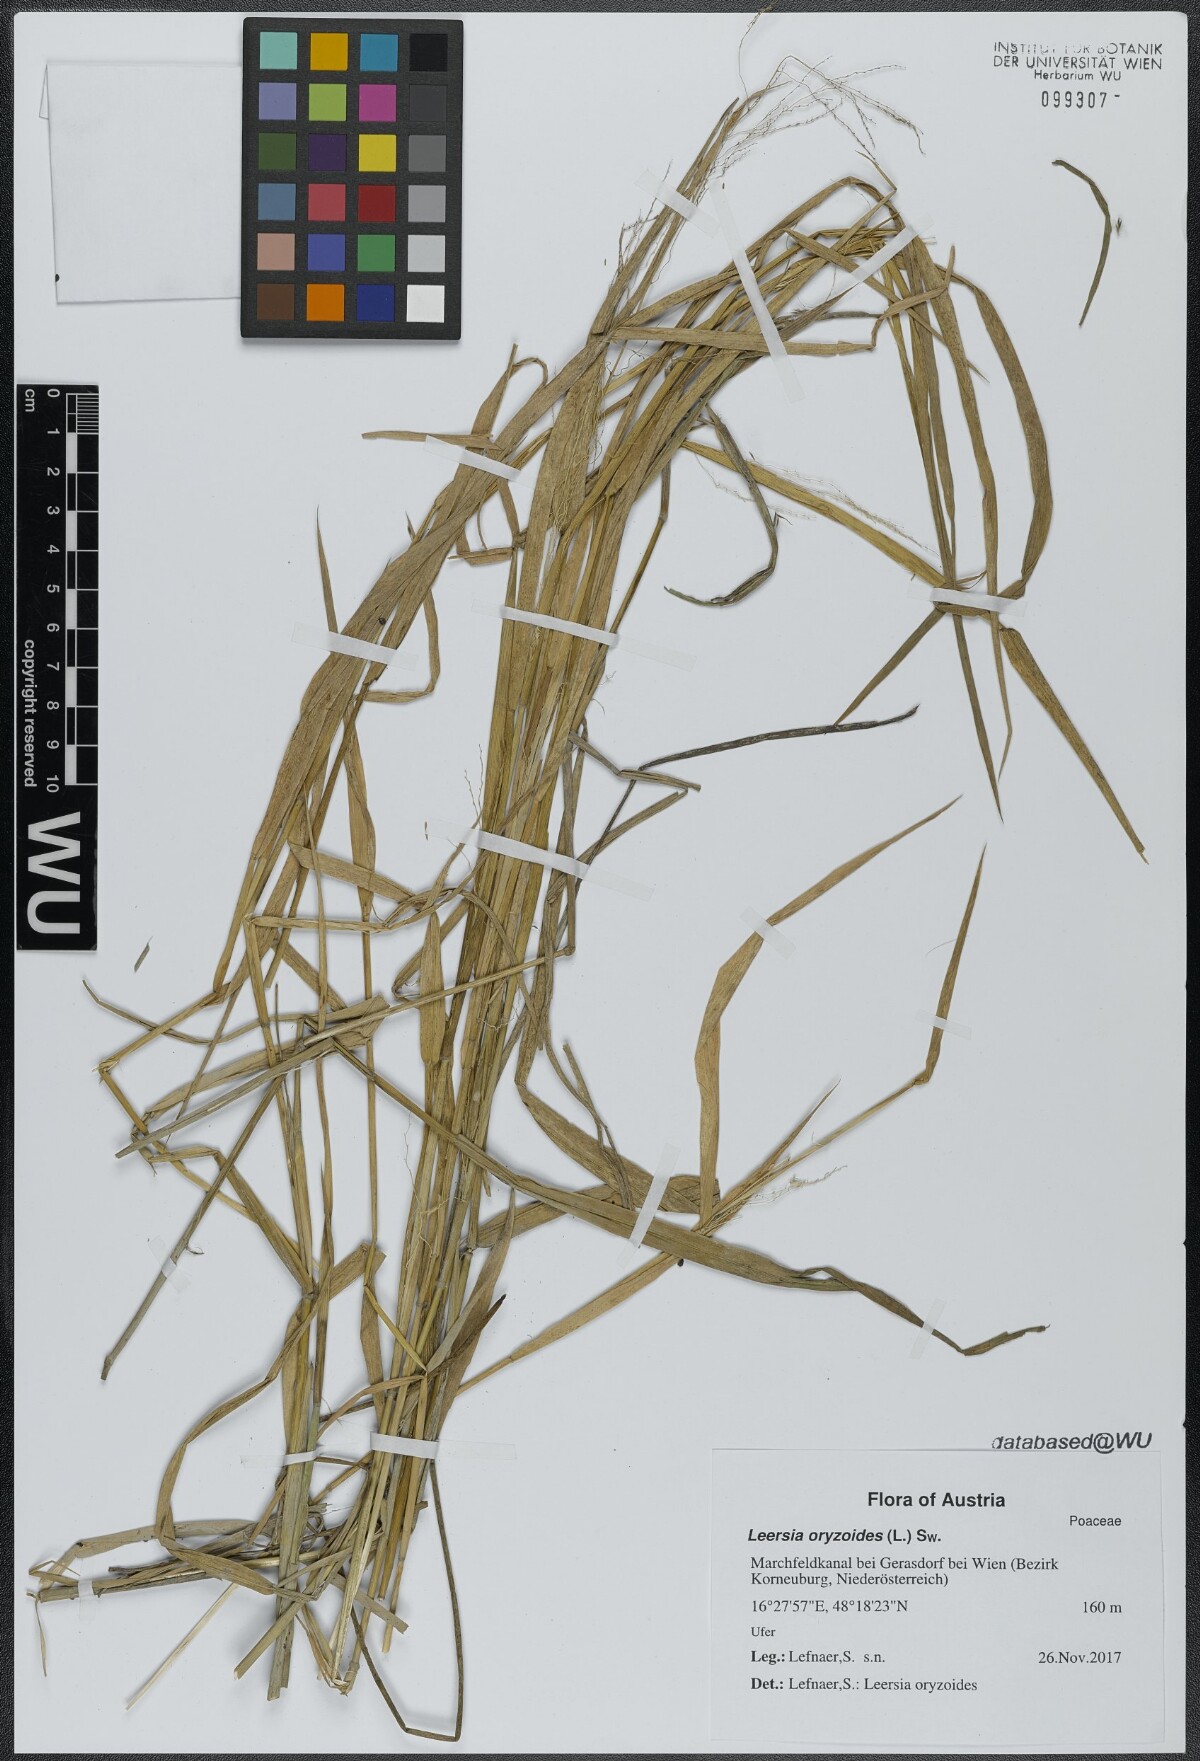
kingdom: Plantae
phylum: Tracheophyta
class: Liliopsida
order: Poales
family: Poaceae
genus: Leersia
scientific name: Leersia oryzoides
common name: Cut-grass
